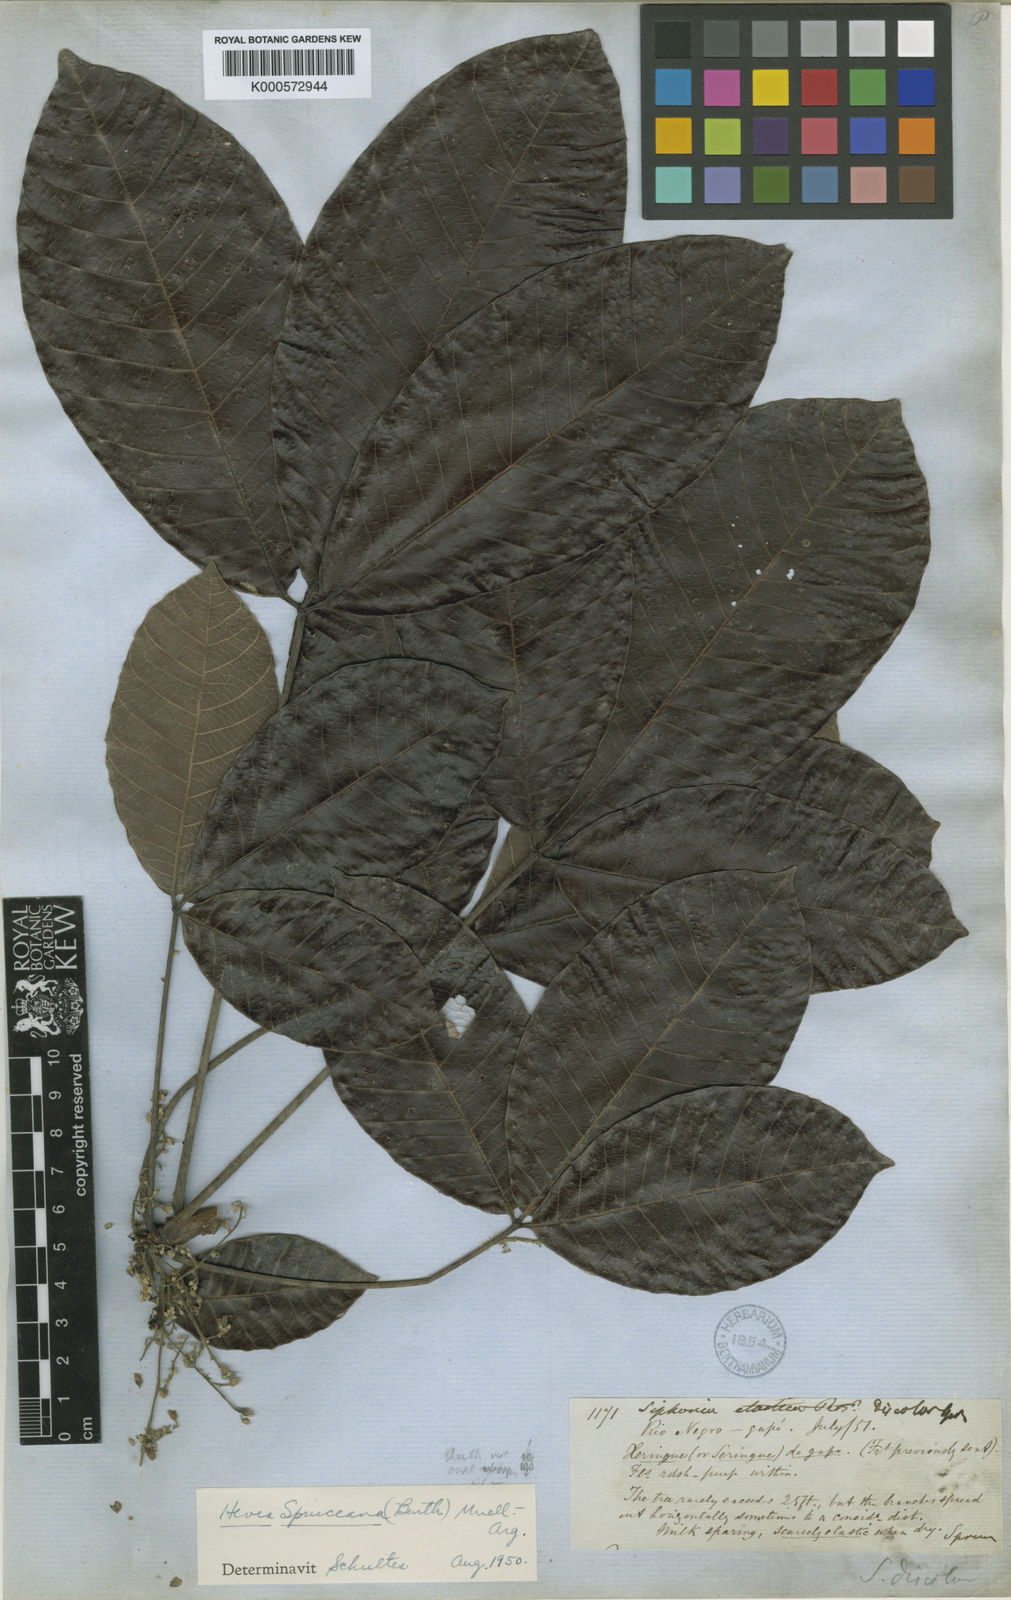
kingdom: Plantae
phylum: Tracheophyta
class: Magnoliopsida
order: Malpighiales
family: Euphorbiaceae
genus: Hevea
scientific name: Hevea
